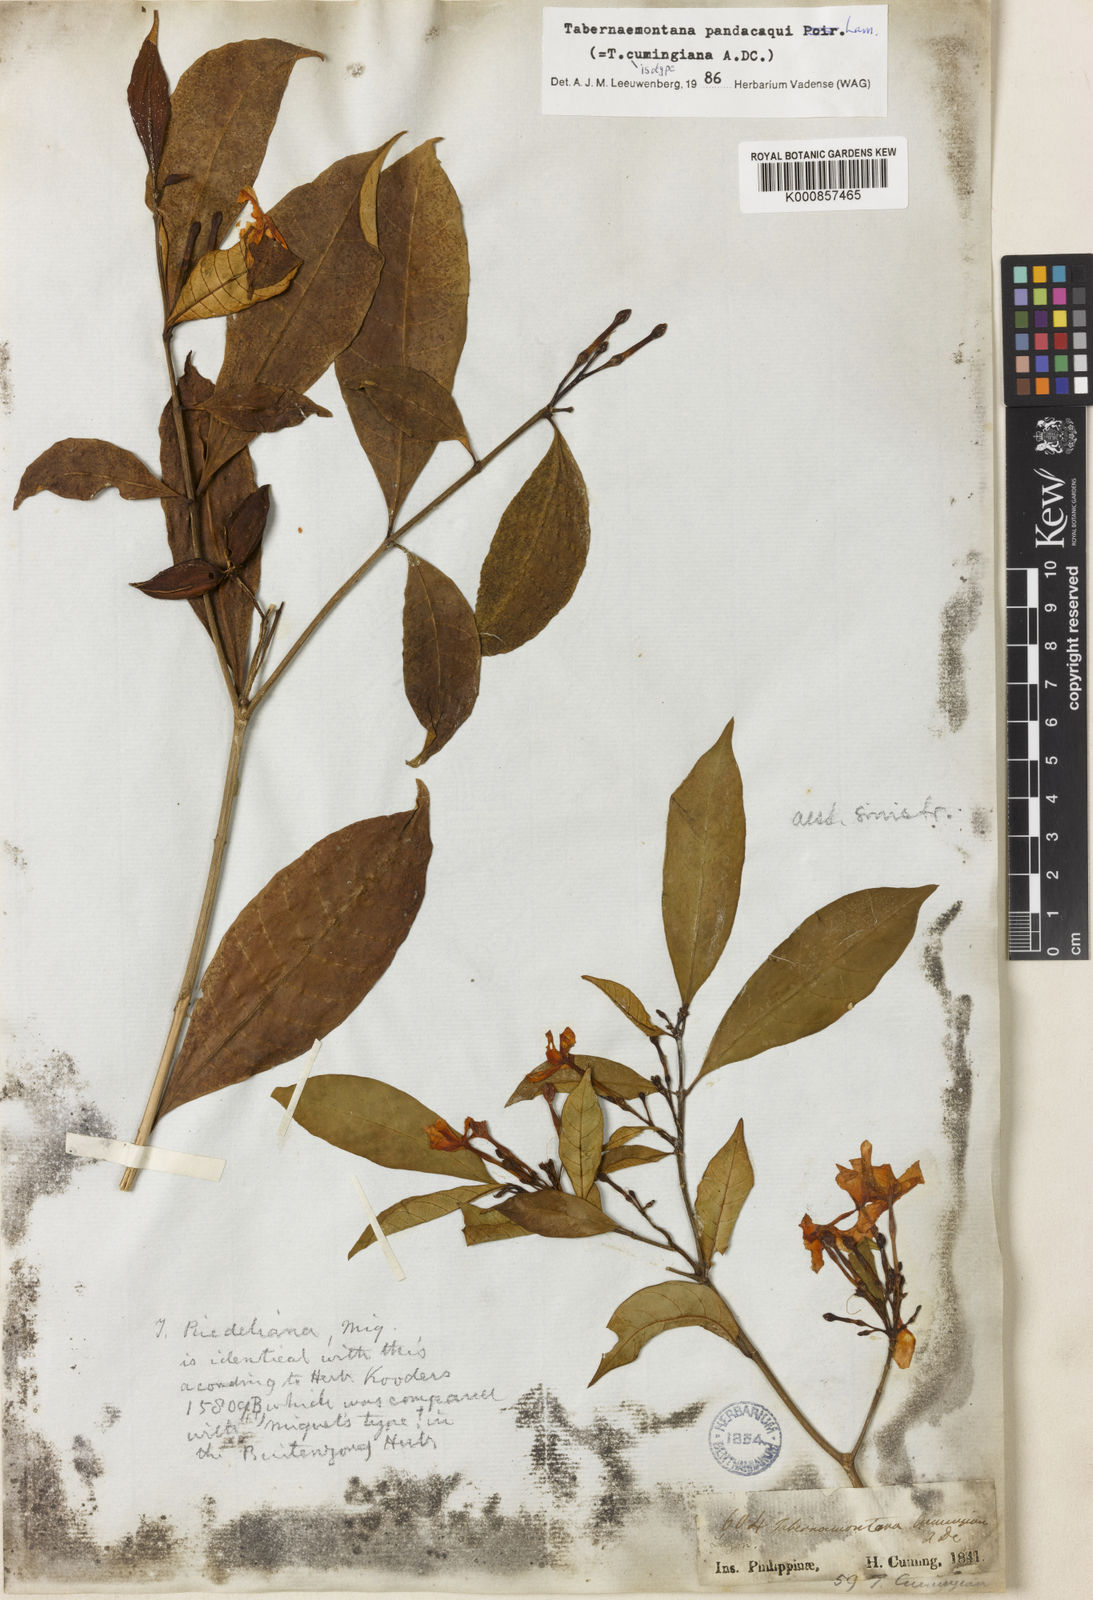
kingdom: Plantae
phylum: Tracheophyta
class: Magnoliopsida
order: Gentianales
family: Apocynaceae
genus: Tabernaemontana
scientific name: Tabernaemontana
